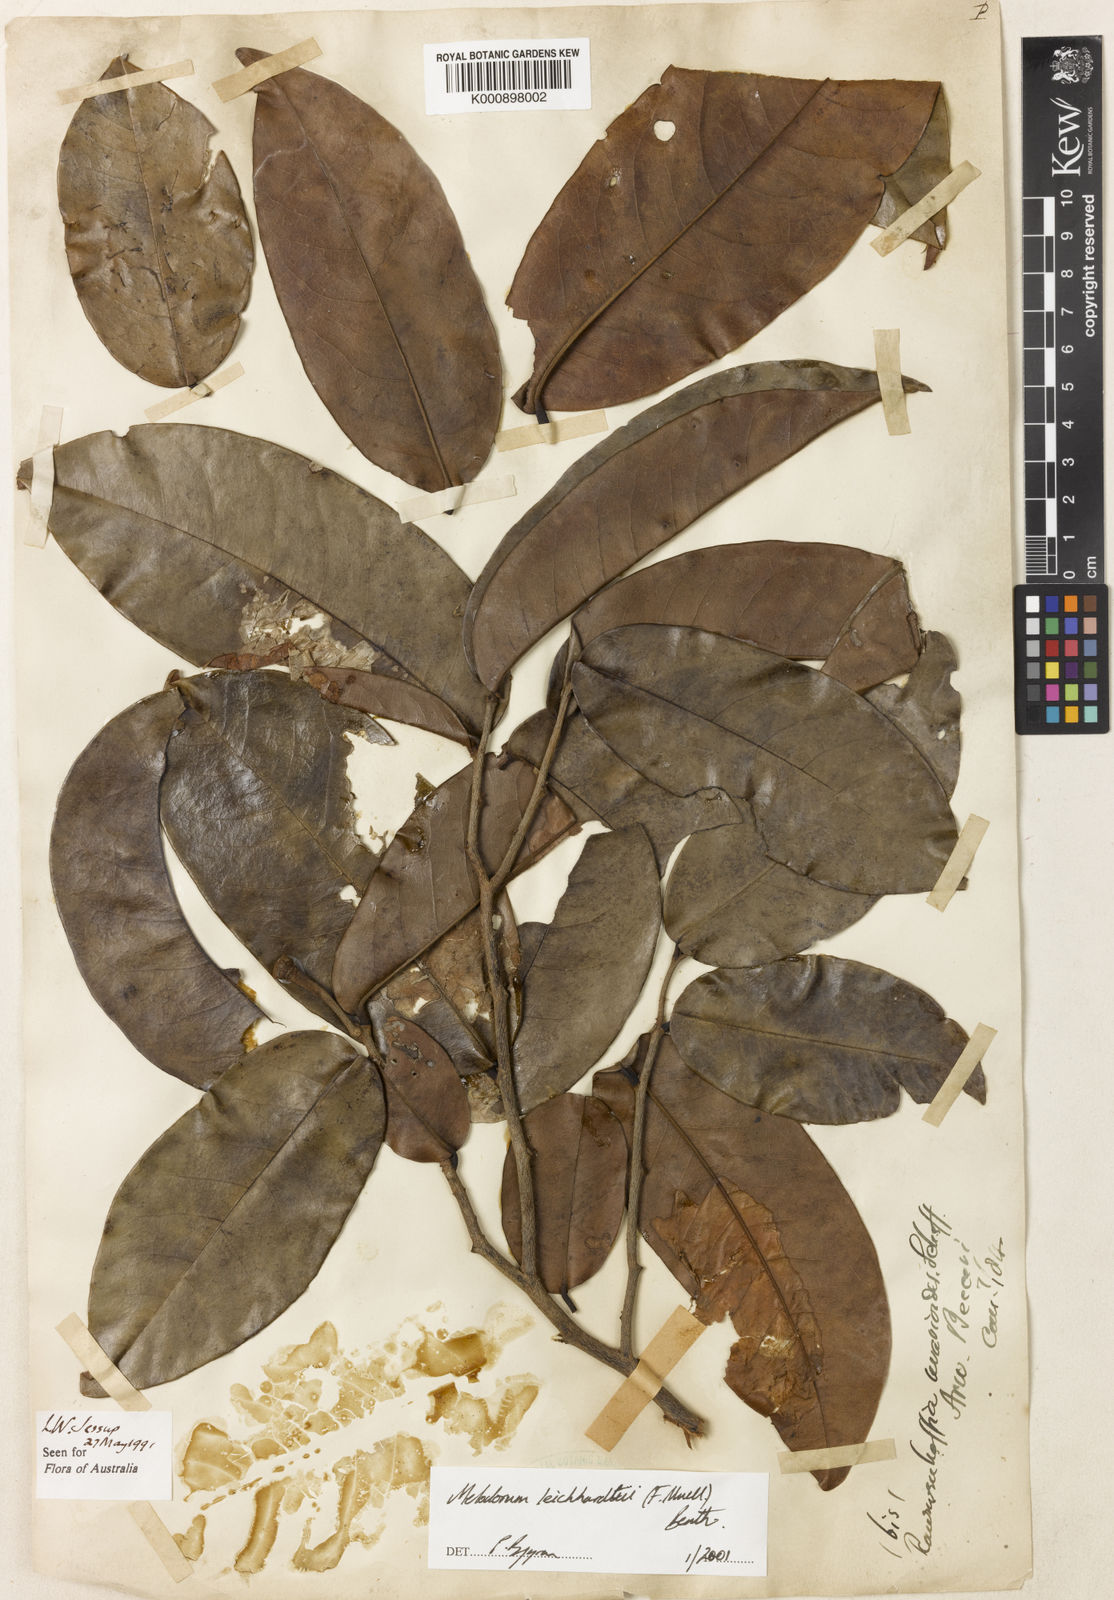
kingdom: Plantae
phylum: Tracheophyta
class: Magnoliopsida
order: Magnoliales
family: Annonaceae
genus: Melodorum
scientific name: Melodorum leichhardtii
